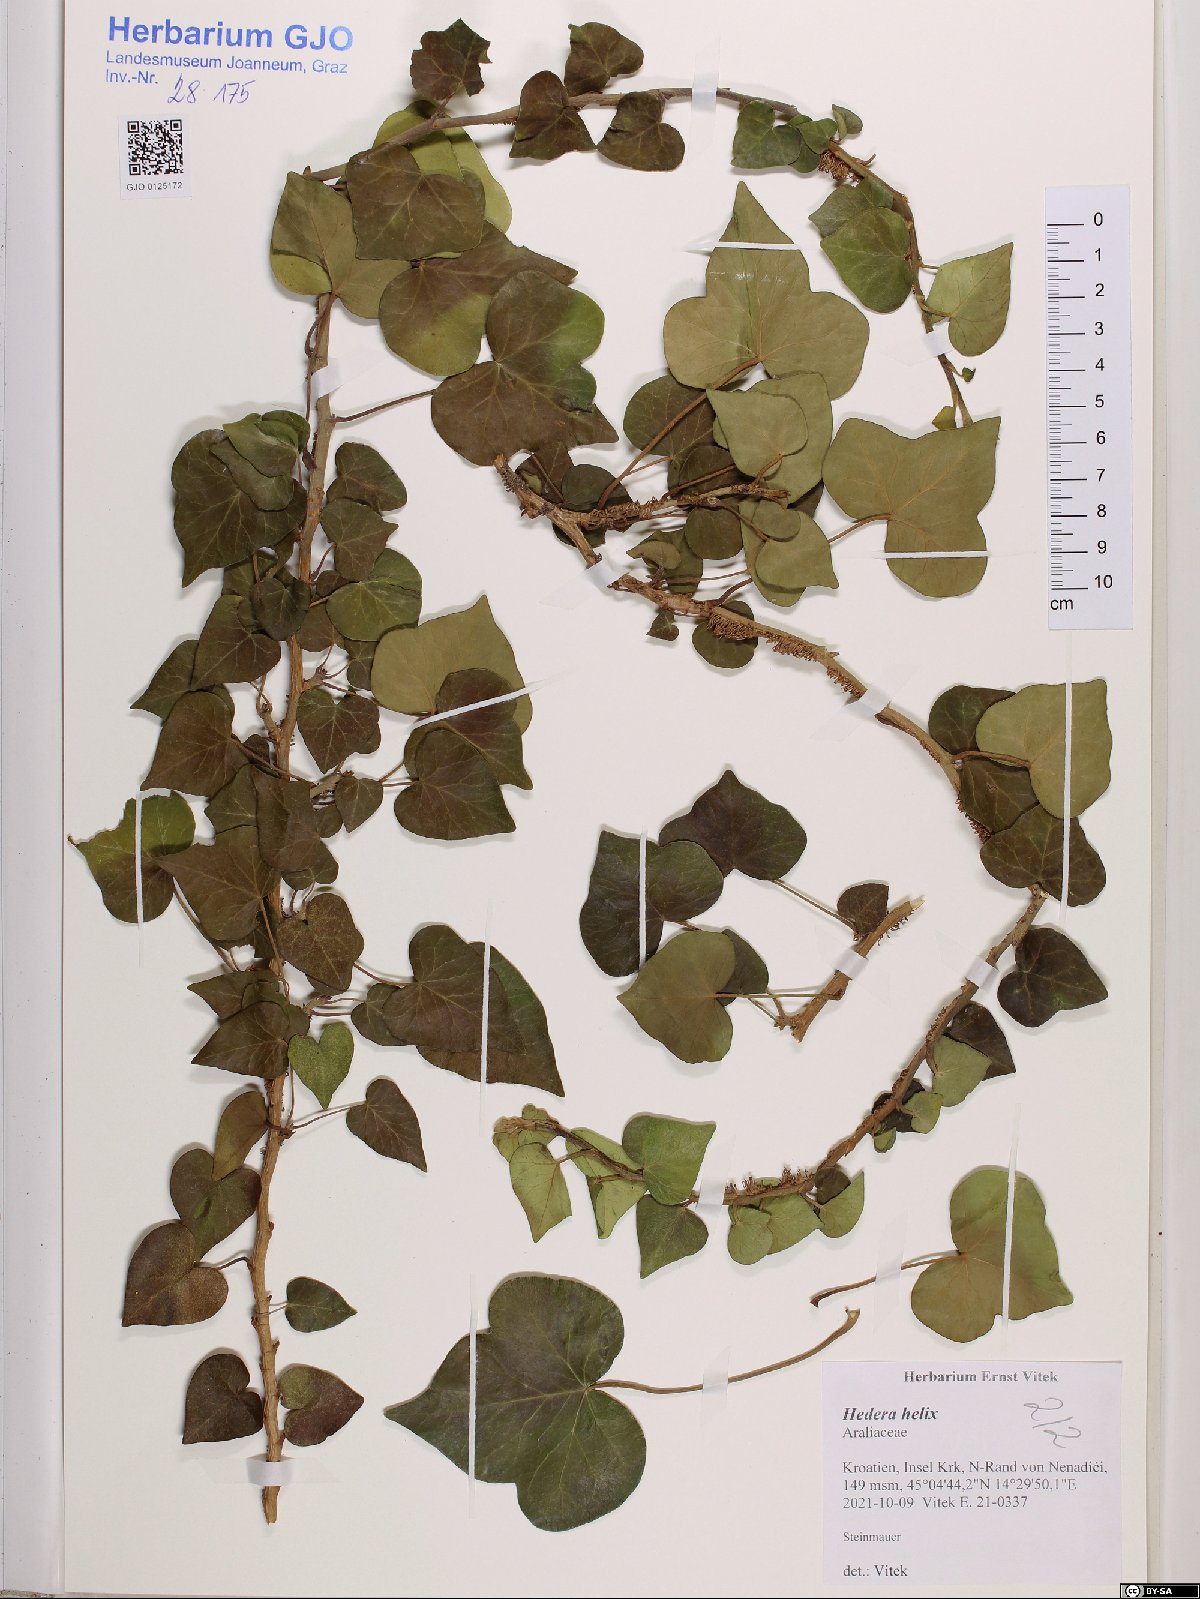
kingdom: Plantae
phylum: Tracheophyta
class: Magnoliopsida
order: Apiales
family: Araliaceae
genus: Hedera
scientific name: Hedera helix
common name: Ivy
